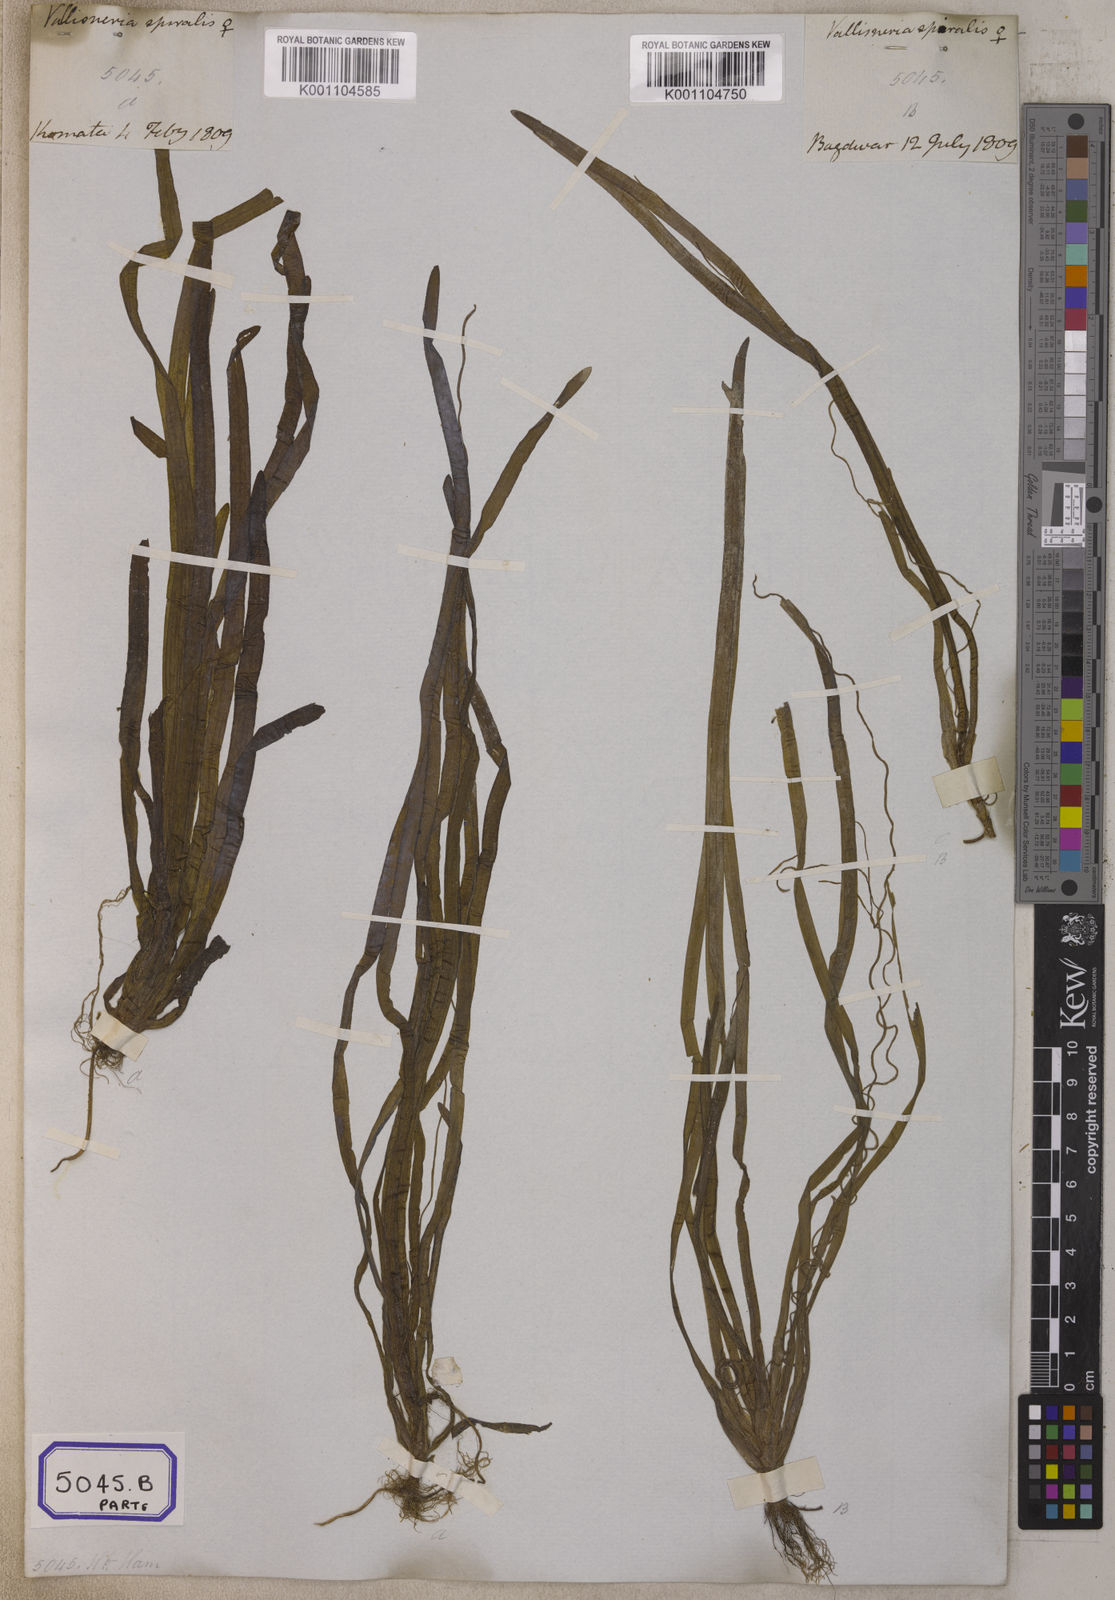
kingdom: Plantae
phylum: Tracheophyta
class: Liliopsida
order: Alismatales
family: Hydrocharitaceae
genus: Vallisneria
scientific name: Vallisneria spiralis
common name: Tapegrass
